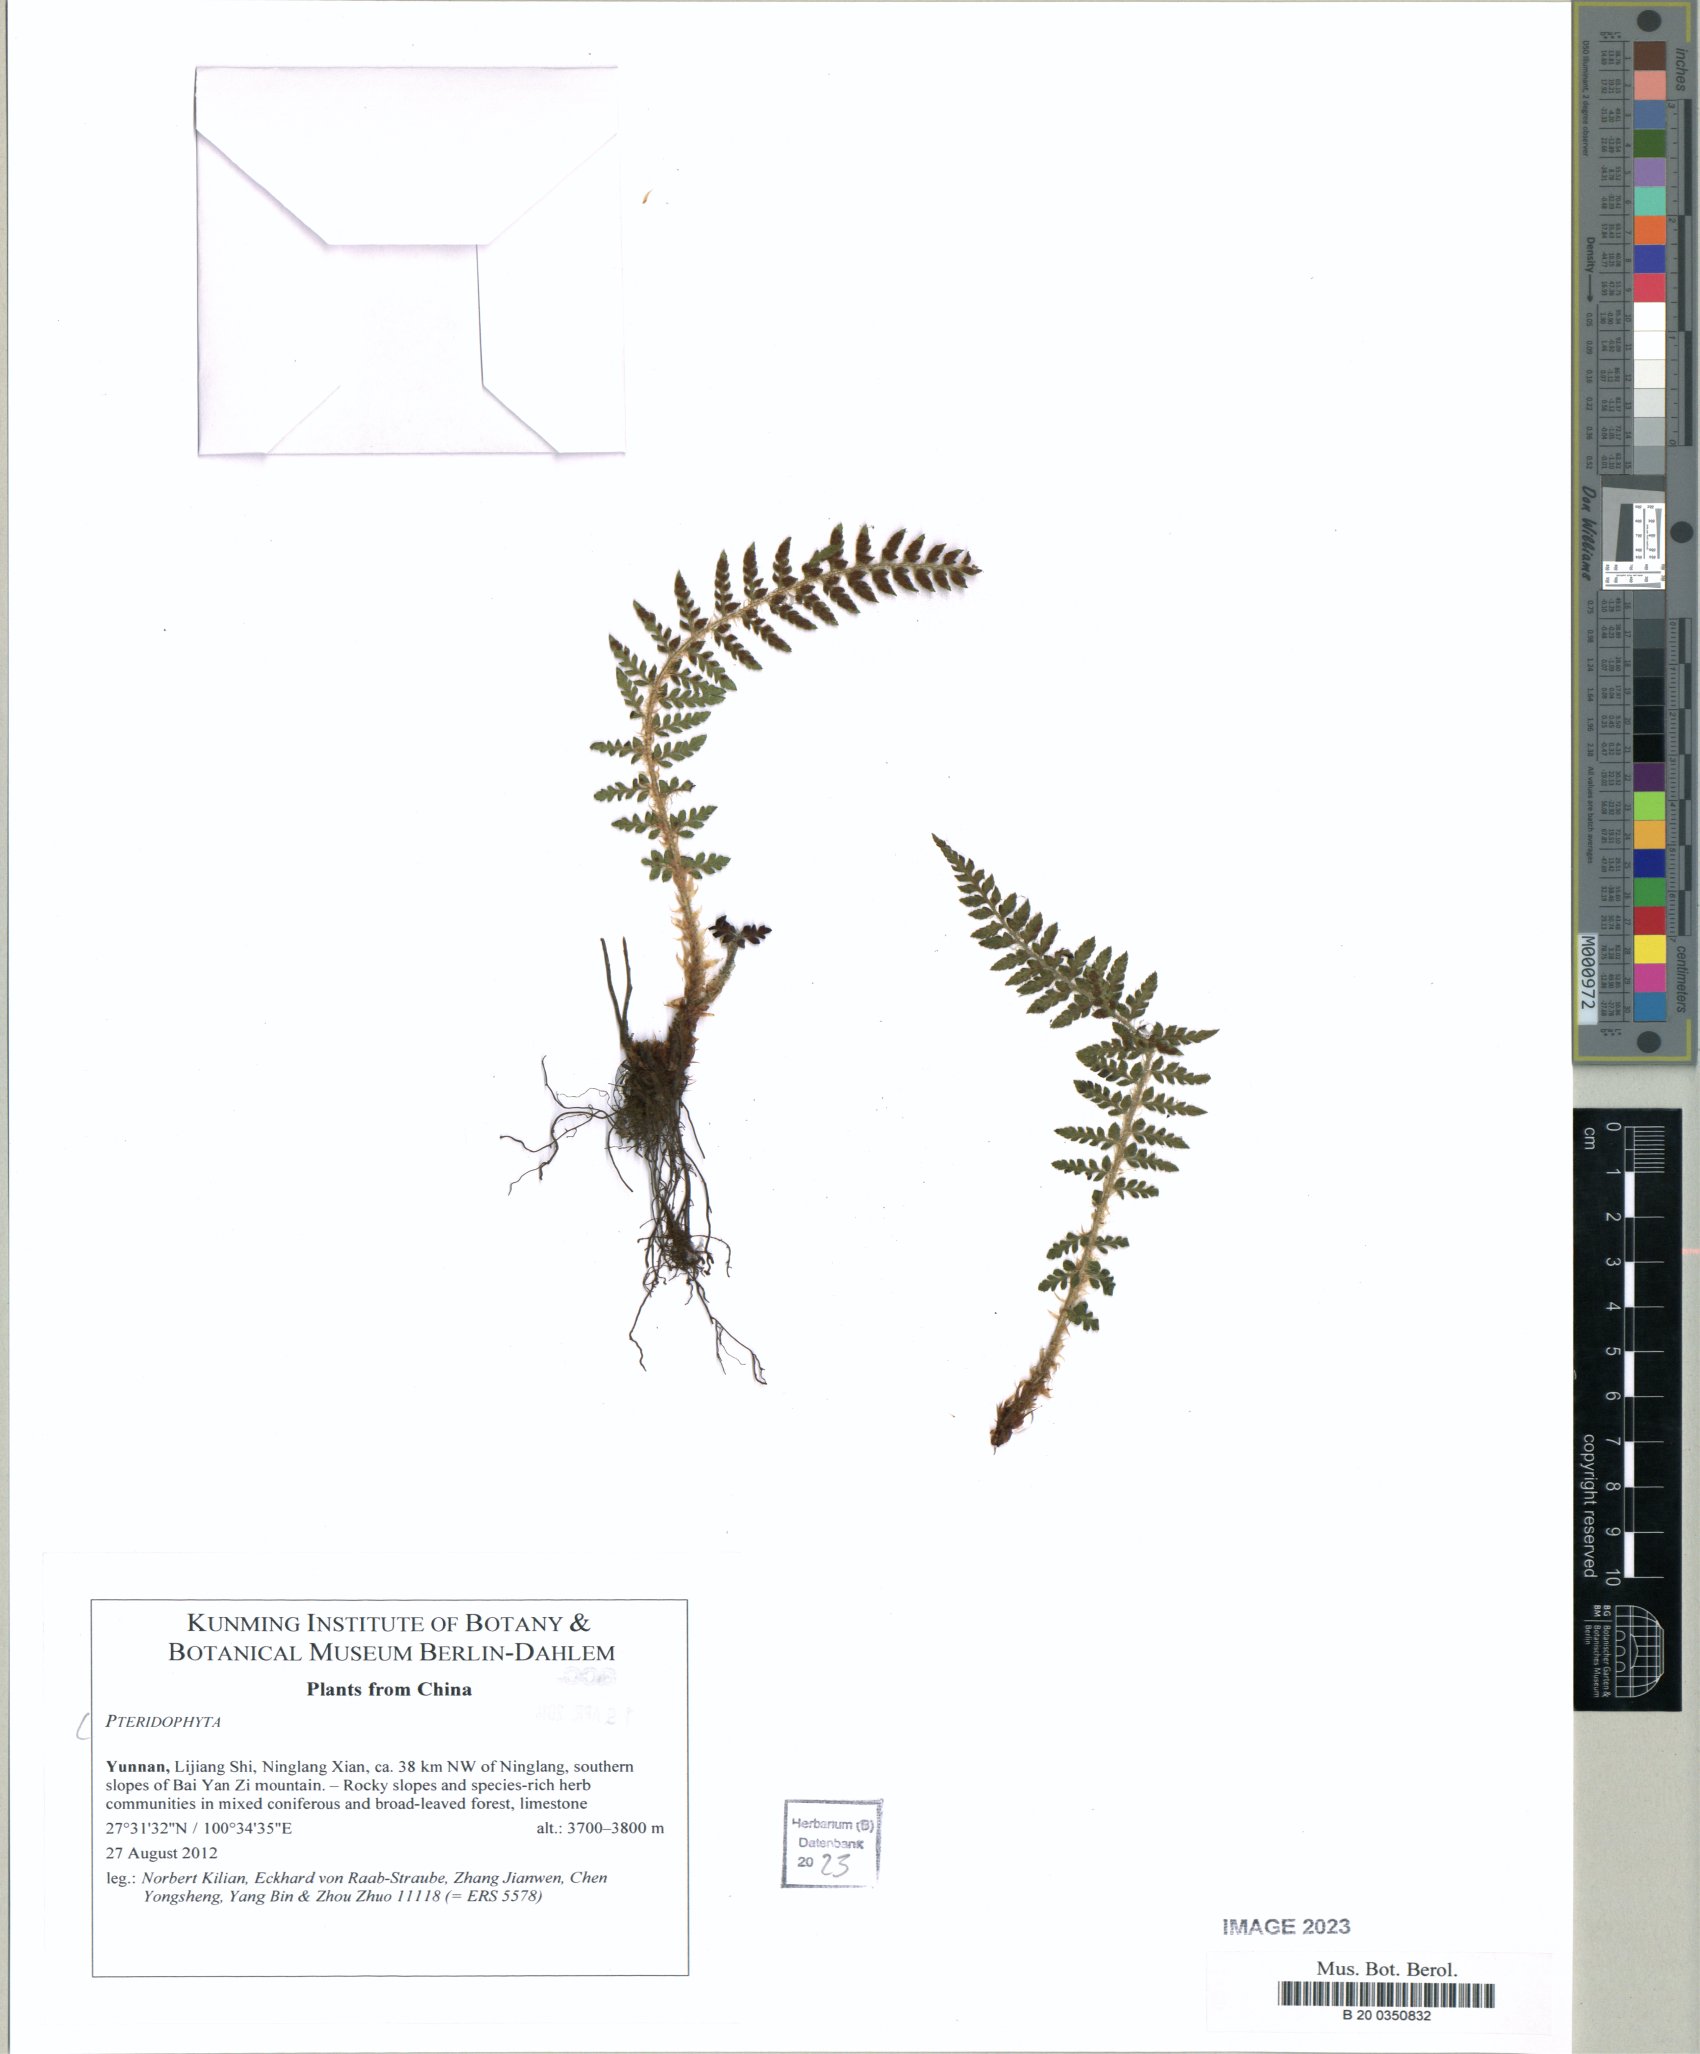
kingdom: Plantae
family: Pteridophyta
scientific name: Pteridophyta
